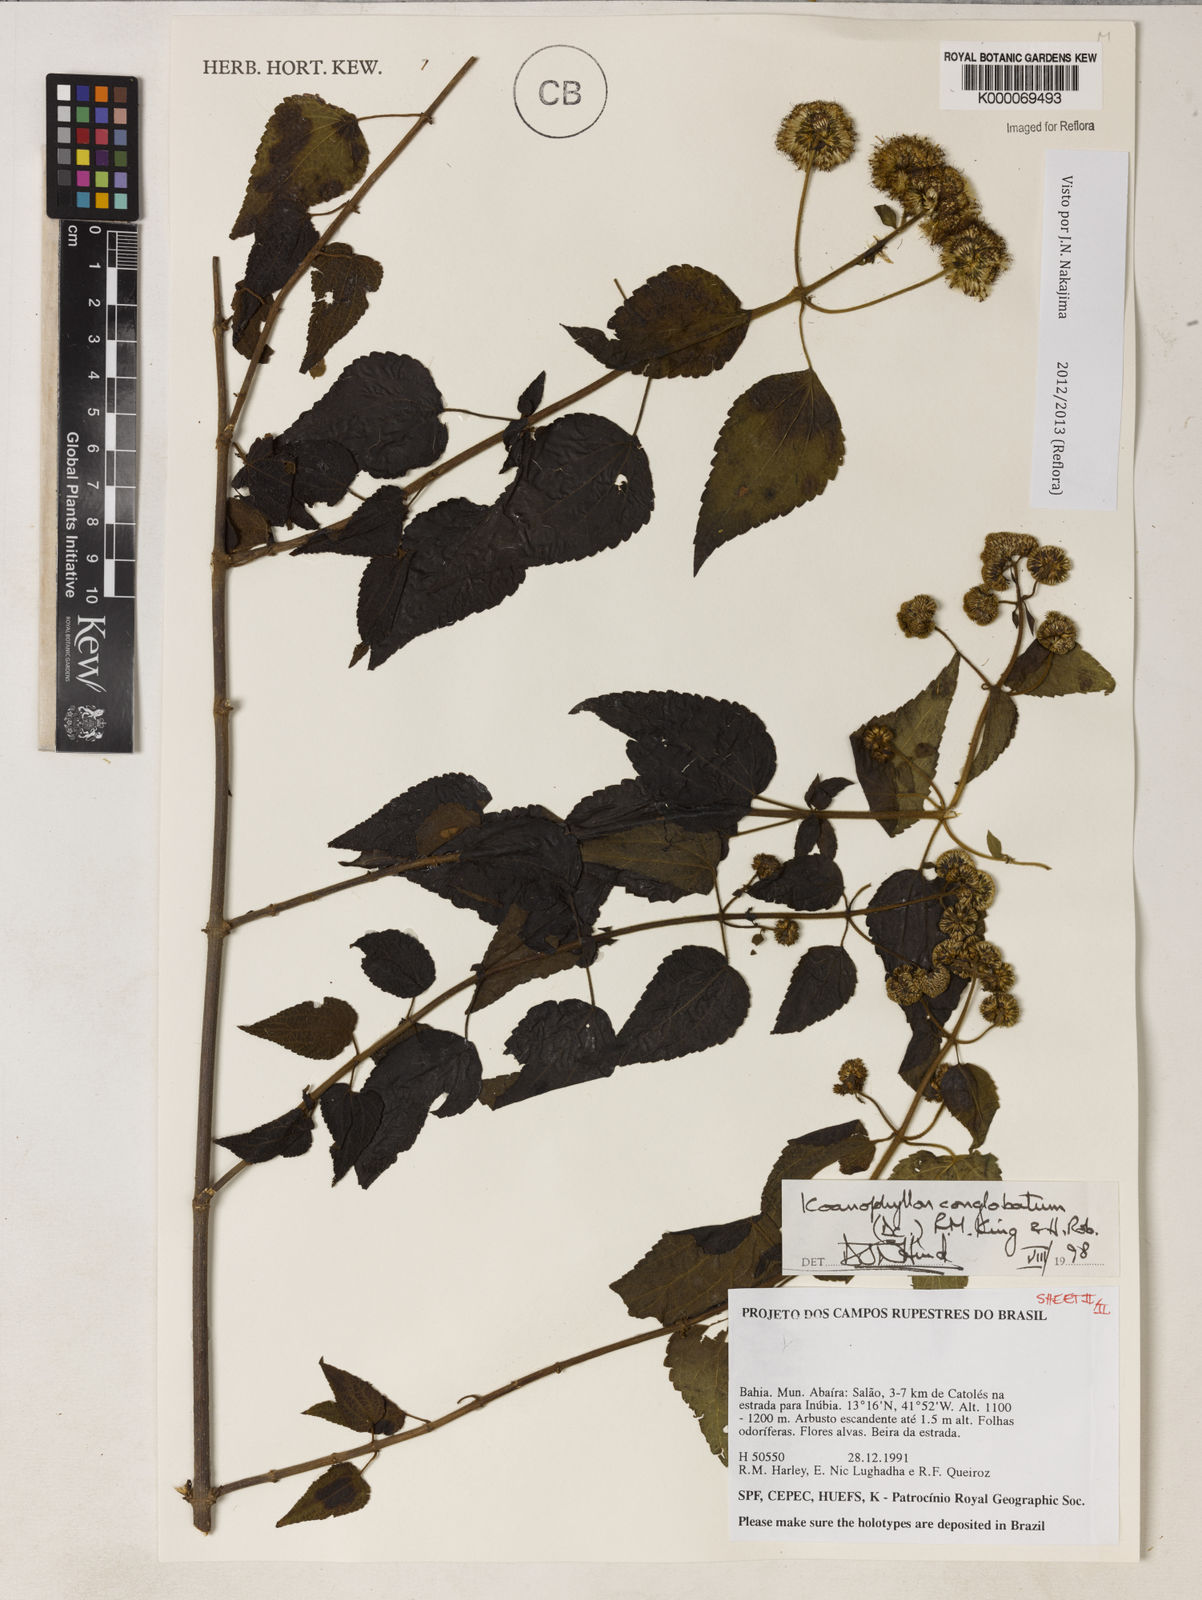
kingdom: Plantae
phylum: Tracheophyta
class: Magnoliopsida
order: Asterales
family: Asteraceae
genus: Koanophyllon
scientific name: Koanophyllon conglobatum
